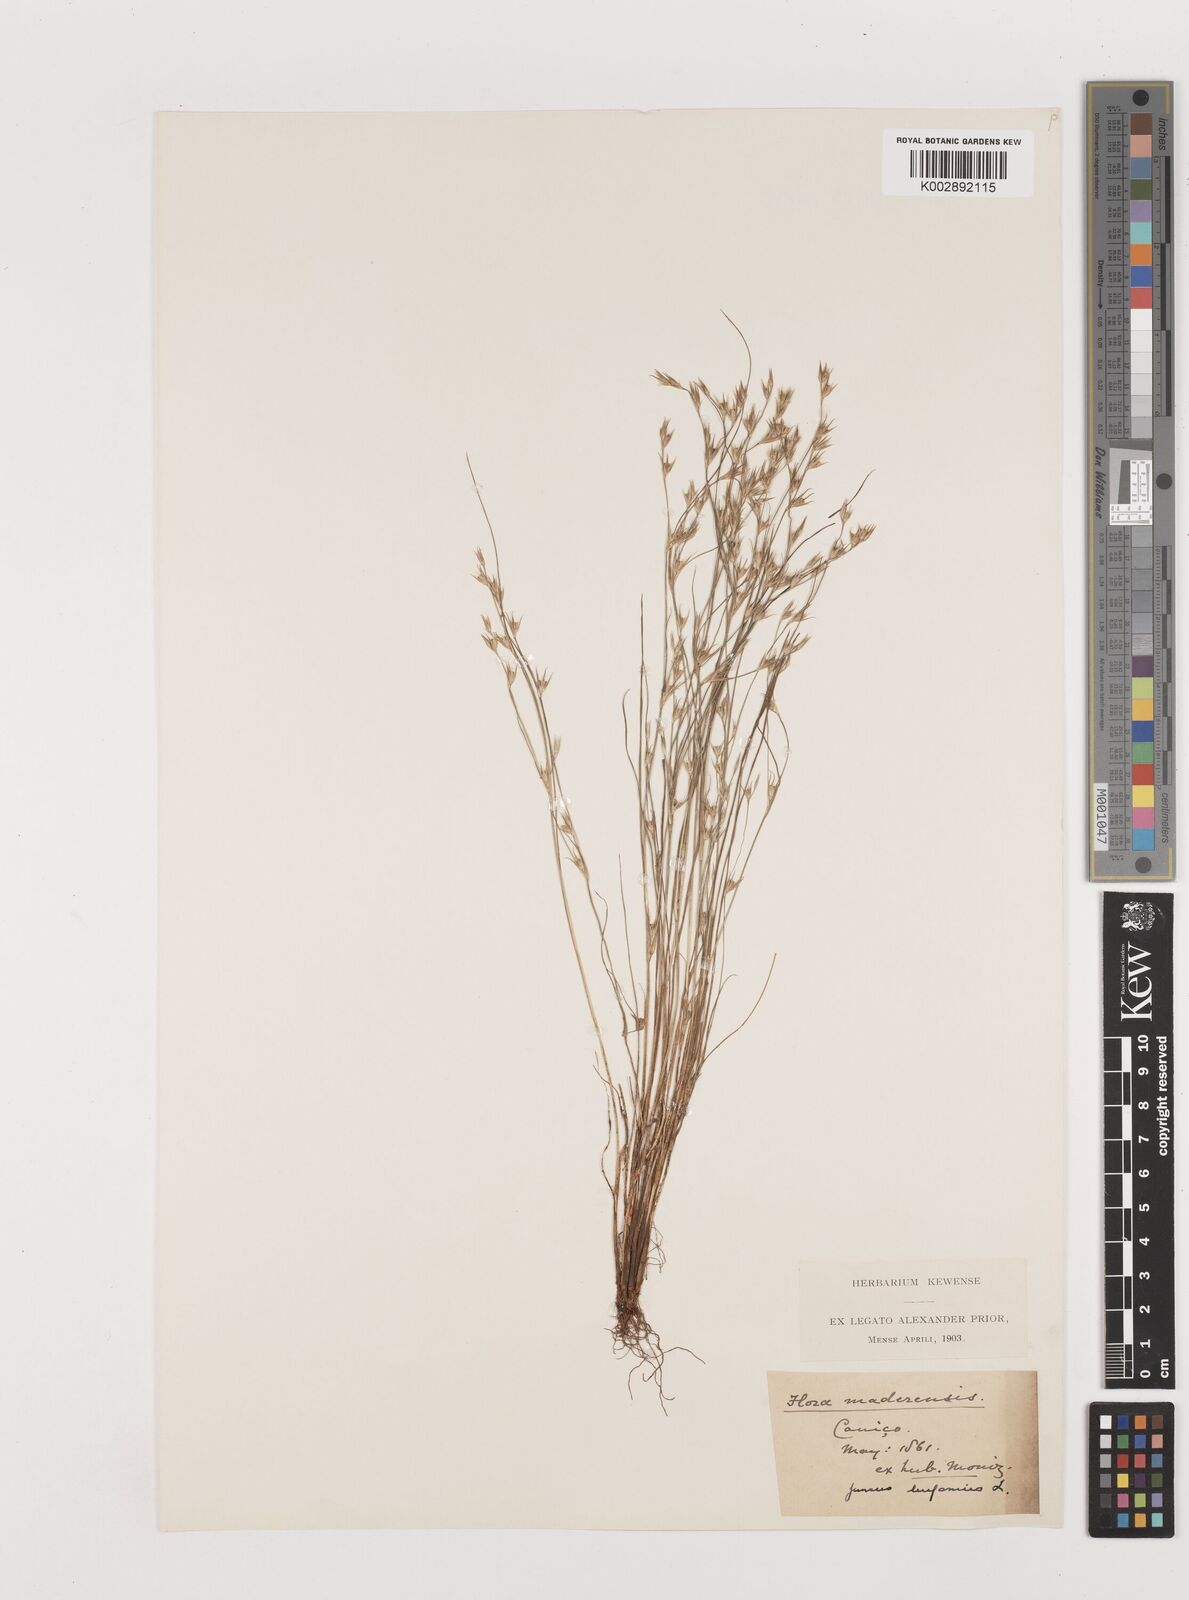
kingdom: Plantae
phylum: Tracheophyta
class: Liliopsida
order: Poales
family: Juncaceae
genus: Juncus
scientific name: Juncus bufonius
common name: Toad rush
